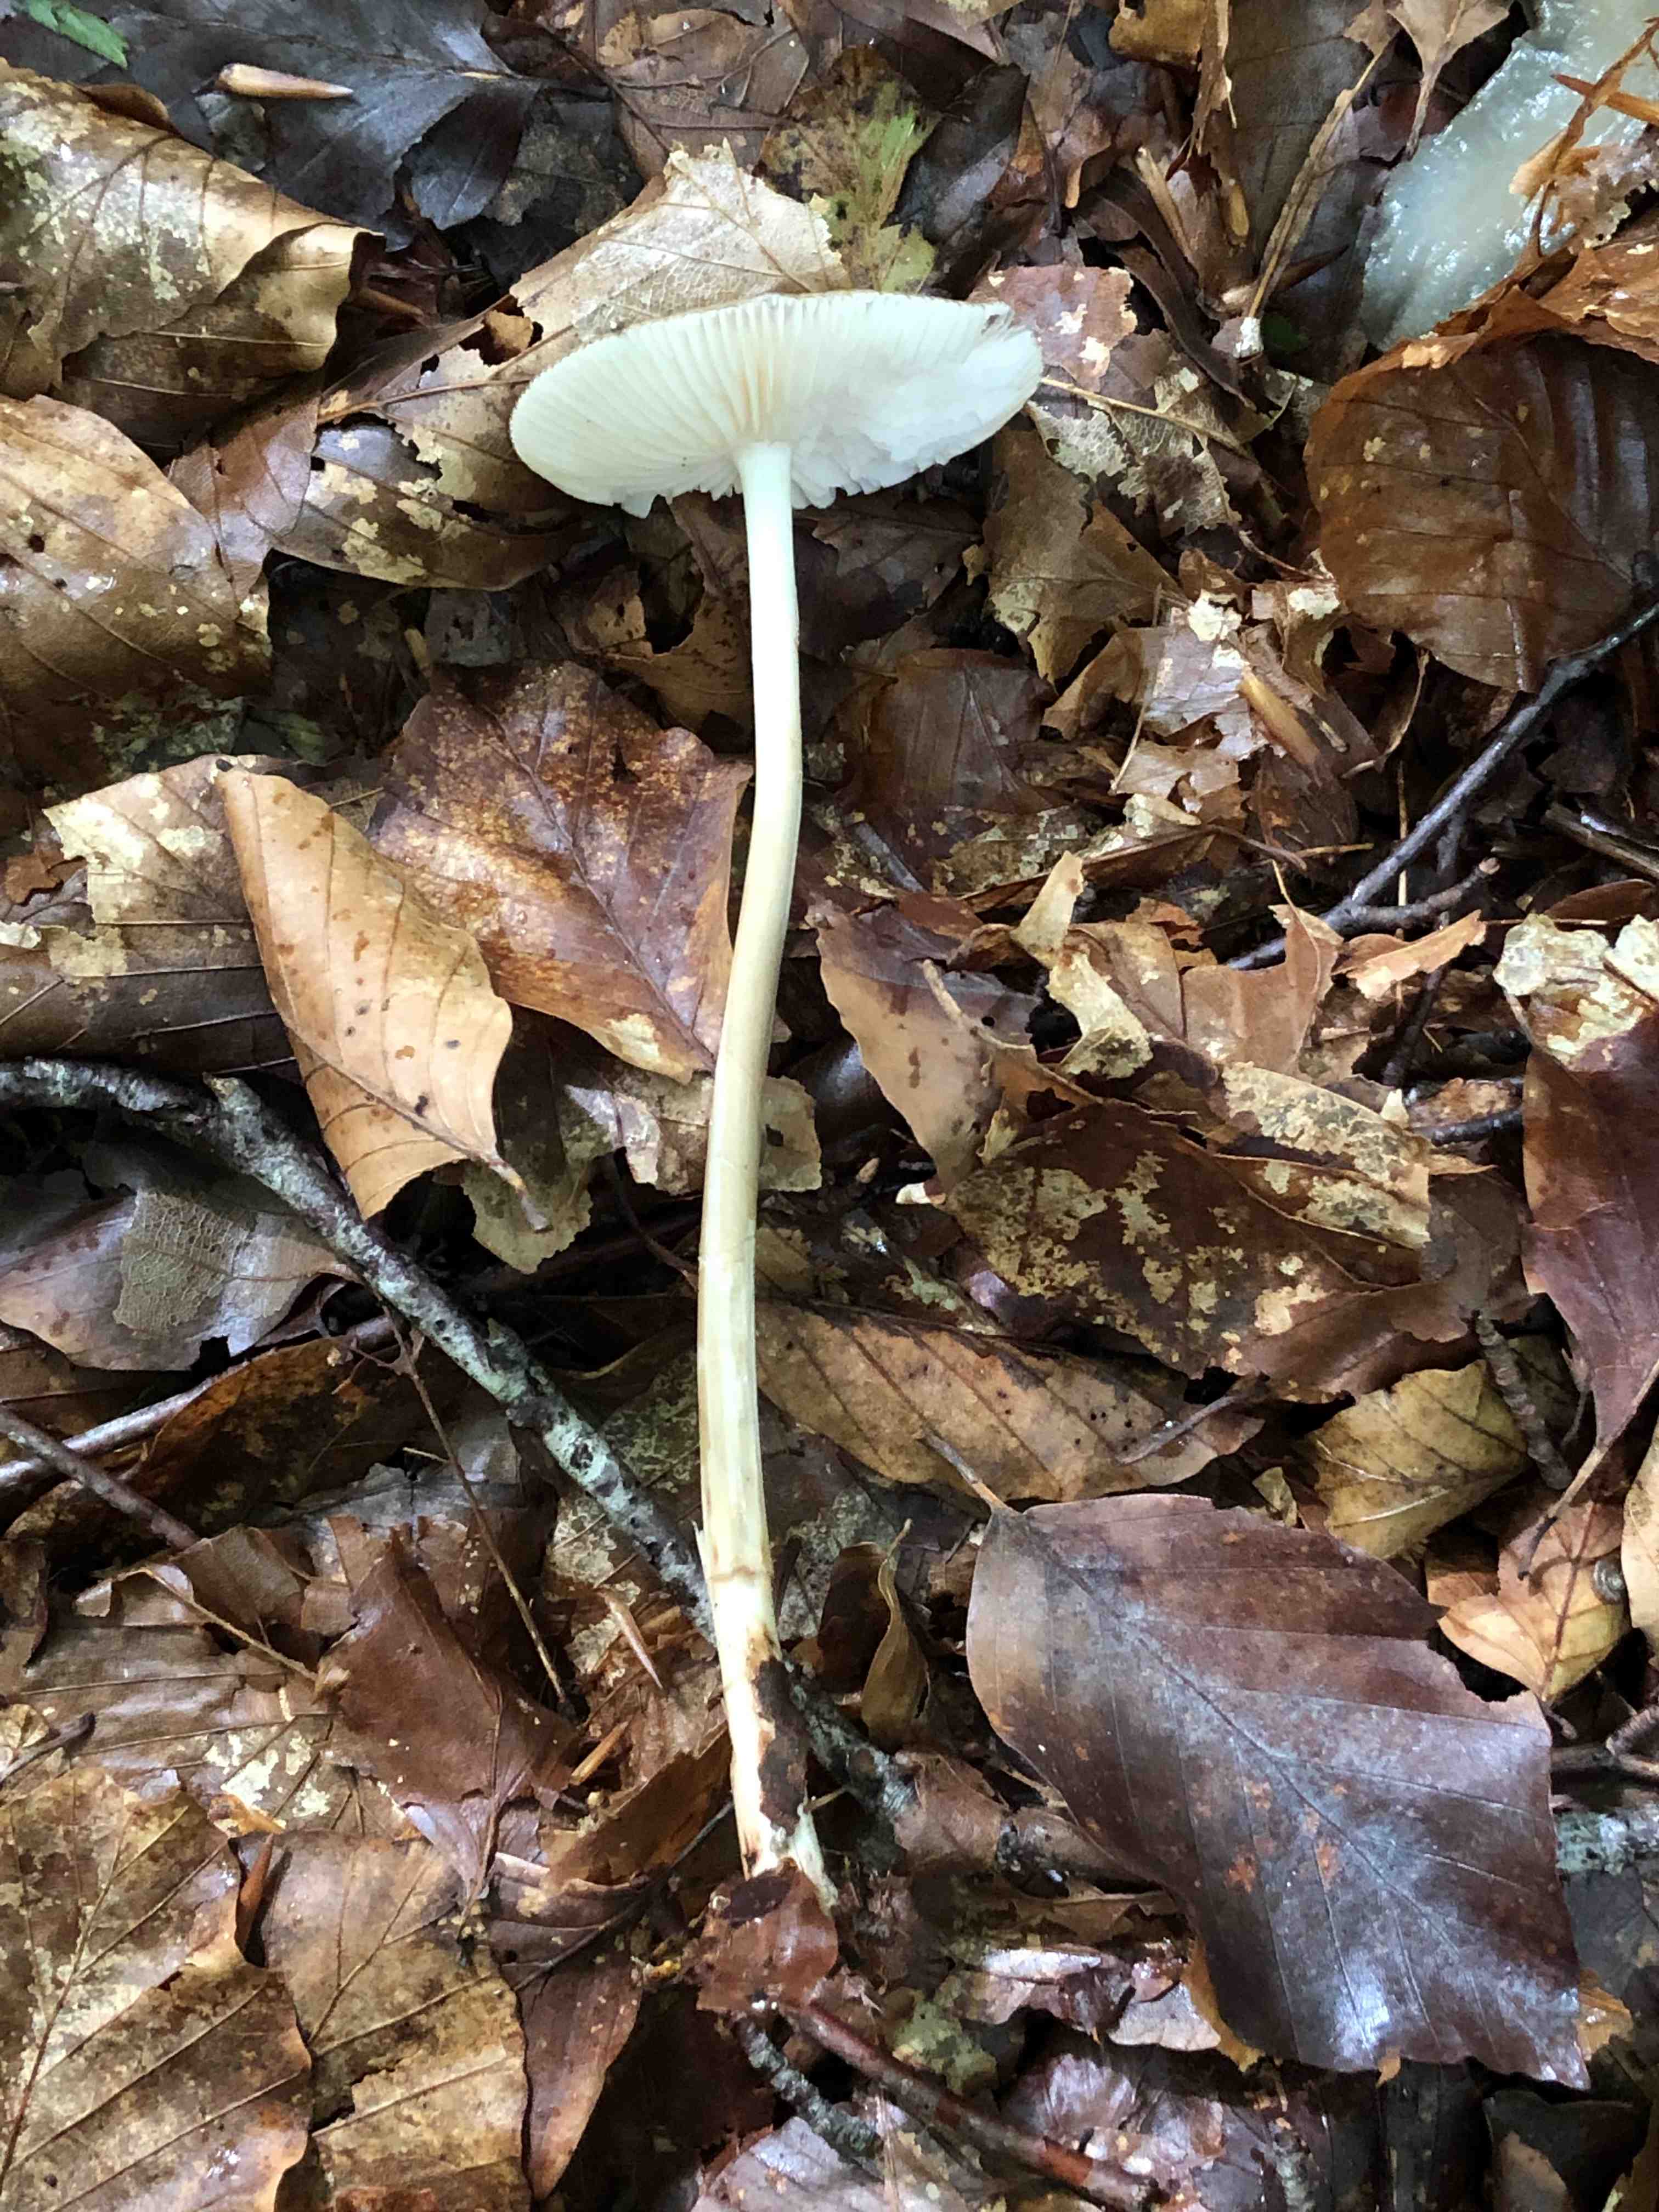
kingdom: Fungi
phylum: Basidiomycota
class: Agaricomycetes
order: Agaricales
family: Physalacriaceae
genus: Hymenopellis
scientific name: Hymenopellis radicata
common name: almindelig pælerodshat
